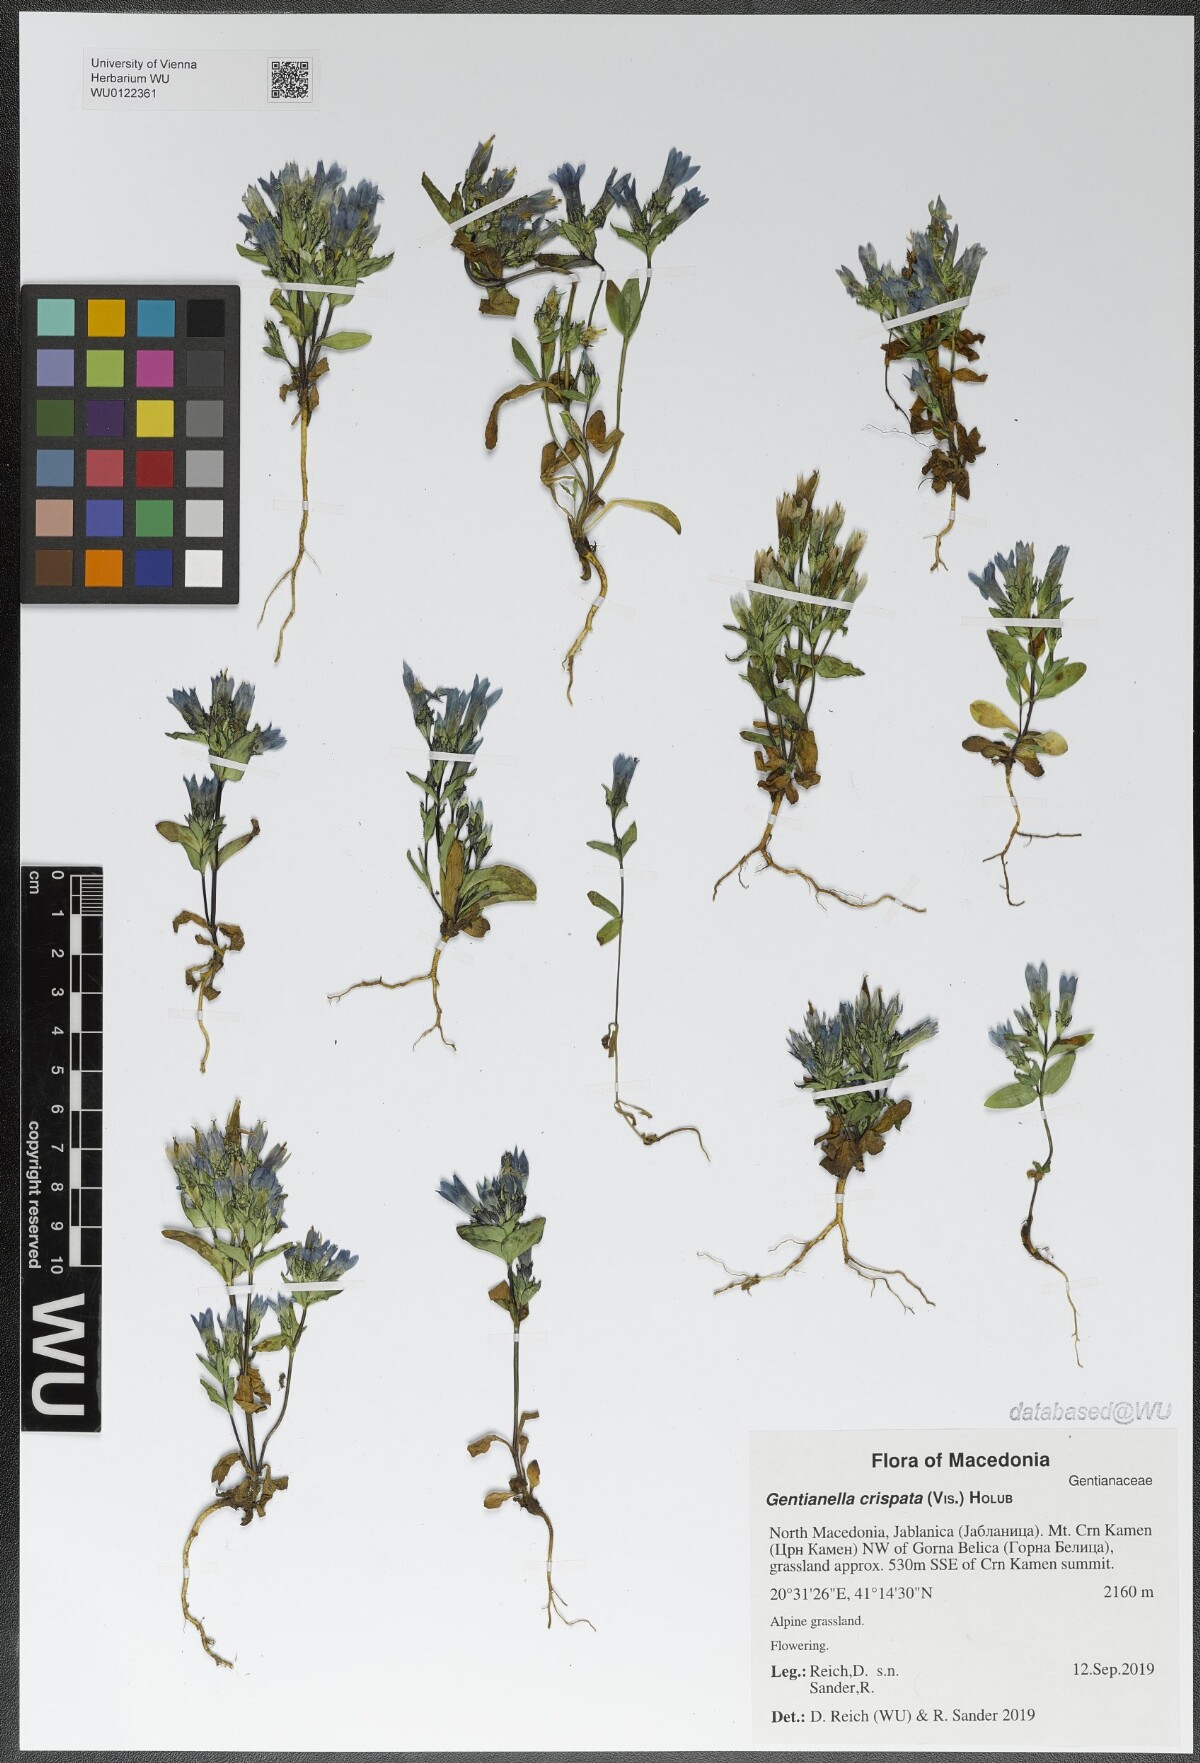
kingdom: Plantae
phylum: Tracheophyta
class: Magnoliopsida
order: Gentianales
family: Gentianaceae
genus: Gentianella
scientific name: Gentianella crispata
